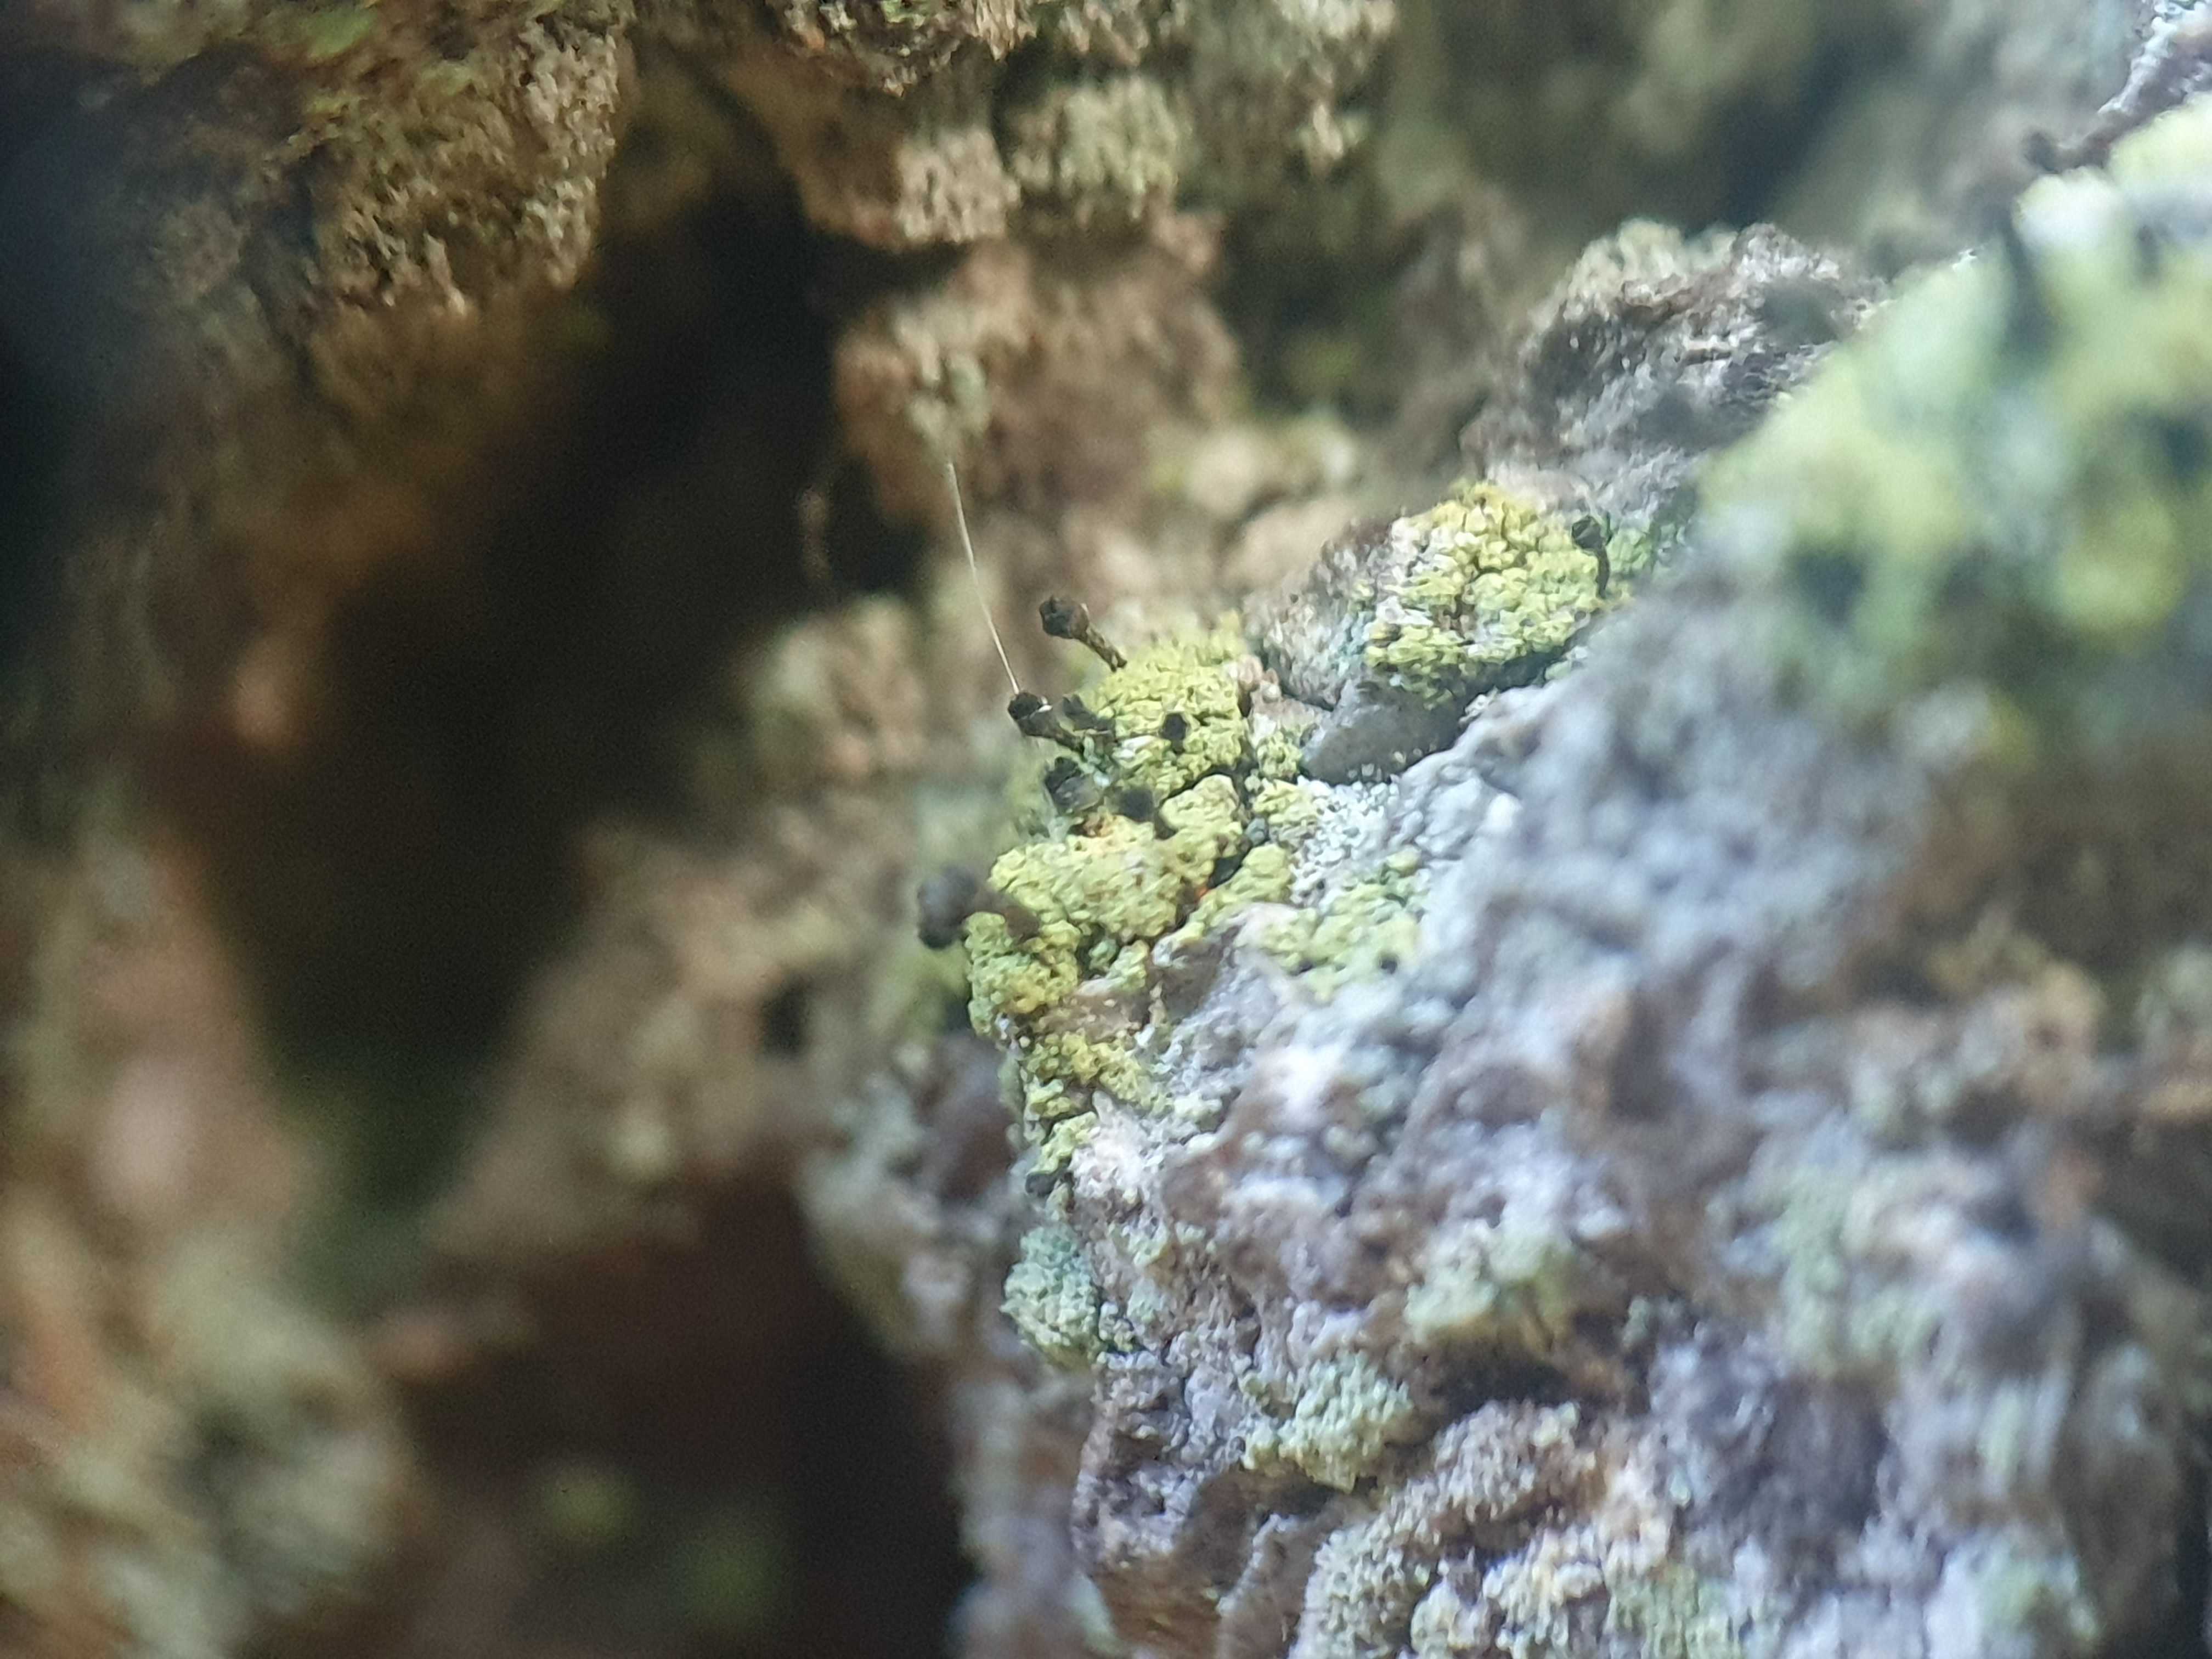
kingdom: Fungi
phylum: Ascomycota
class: Lecanoromycetes
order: Caliciales
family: Caliciaceae
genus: Calicium
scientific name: Calicium viride
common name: gulgrøn nålelav
